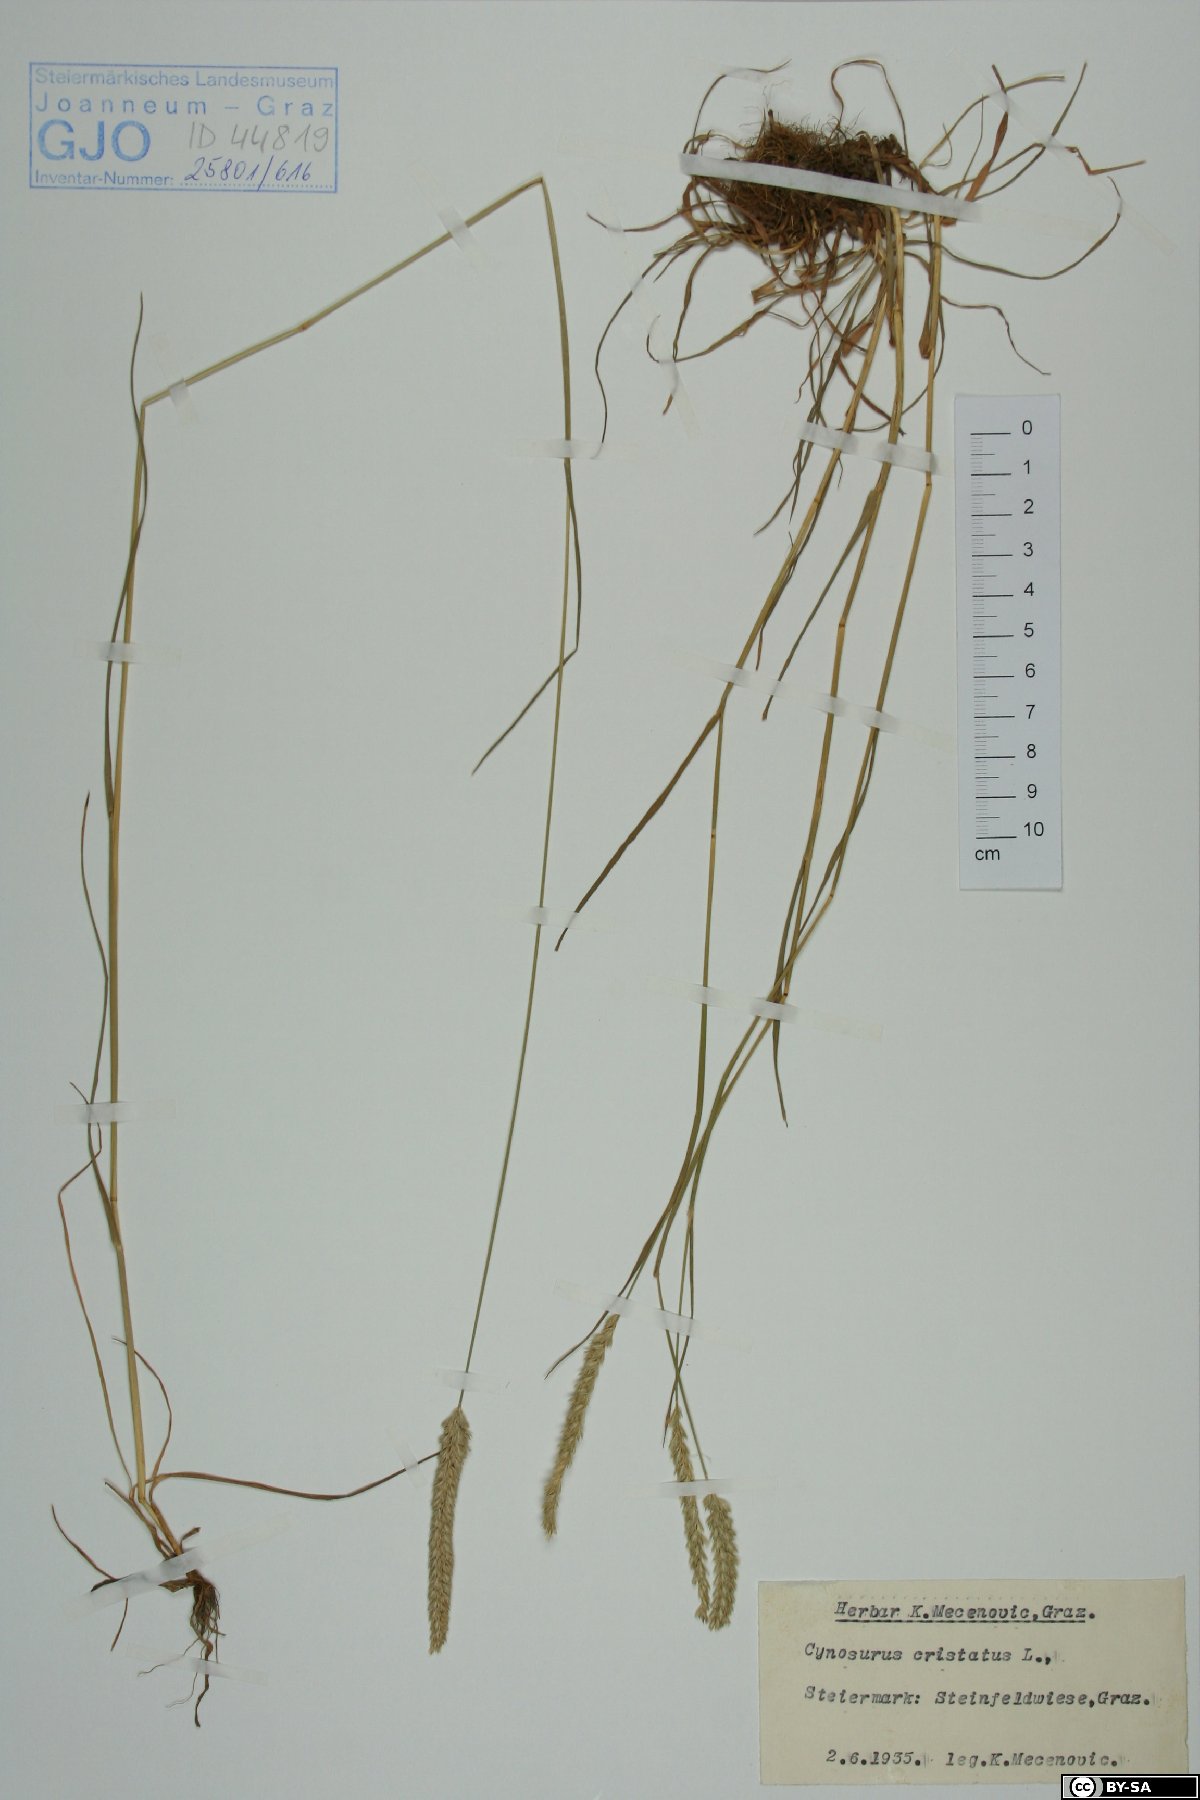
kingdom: Plantae
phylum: Tracheophyta
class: Liliopsida
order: Poales
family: Poaceae
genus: Cynosurus
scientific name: Cynosurus cristatus
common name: Crested dog's-tail
